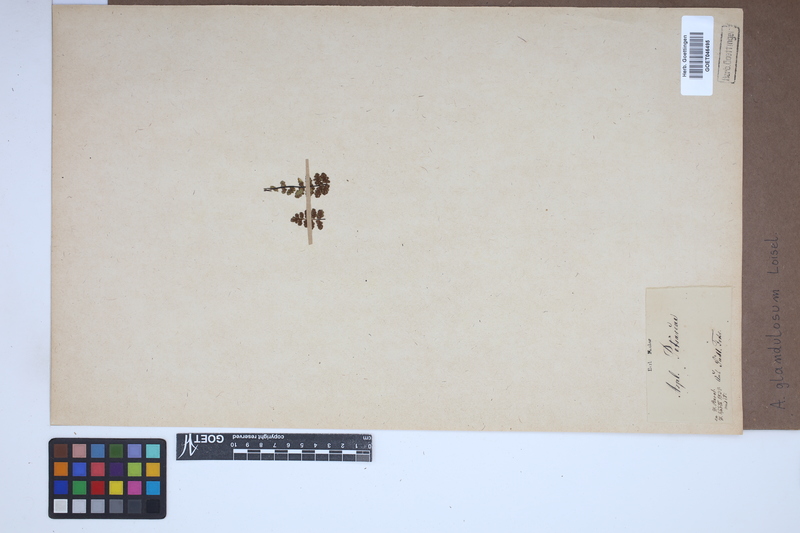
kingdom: Plantae
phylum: Tracheophyta
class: Polypodiopsida
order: Polypodiales
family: Aspleniaceae
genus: Asplenium
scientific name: Asplenium petrarchae
